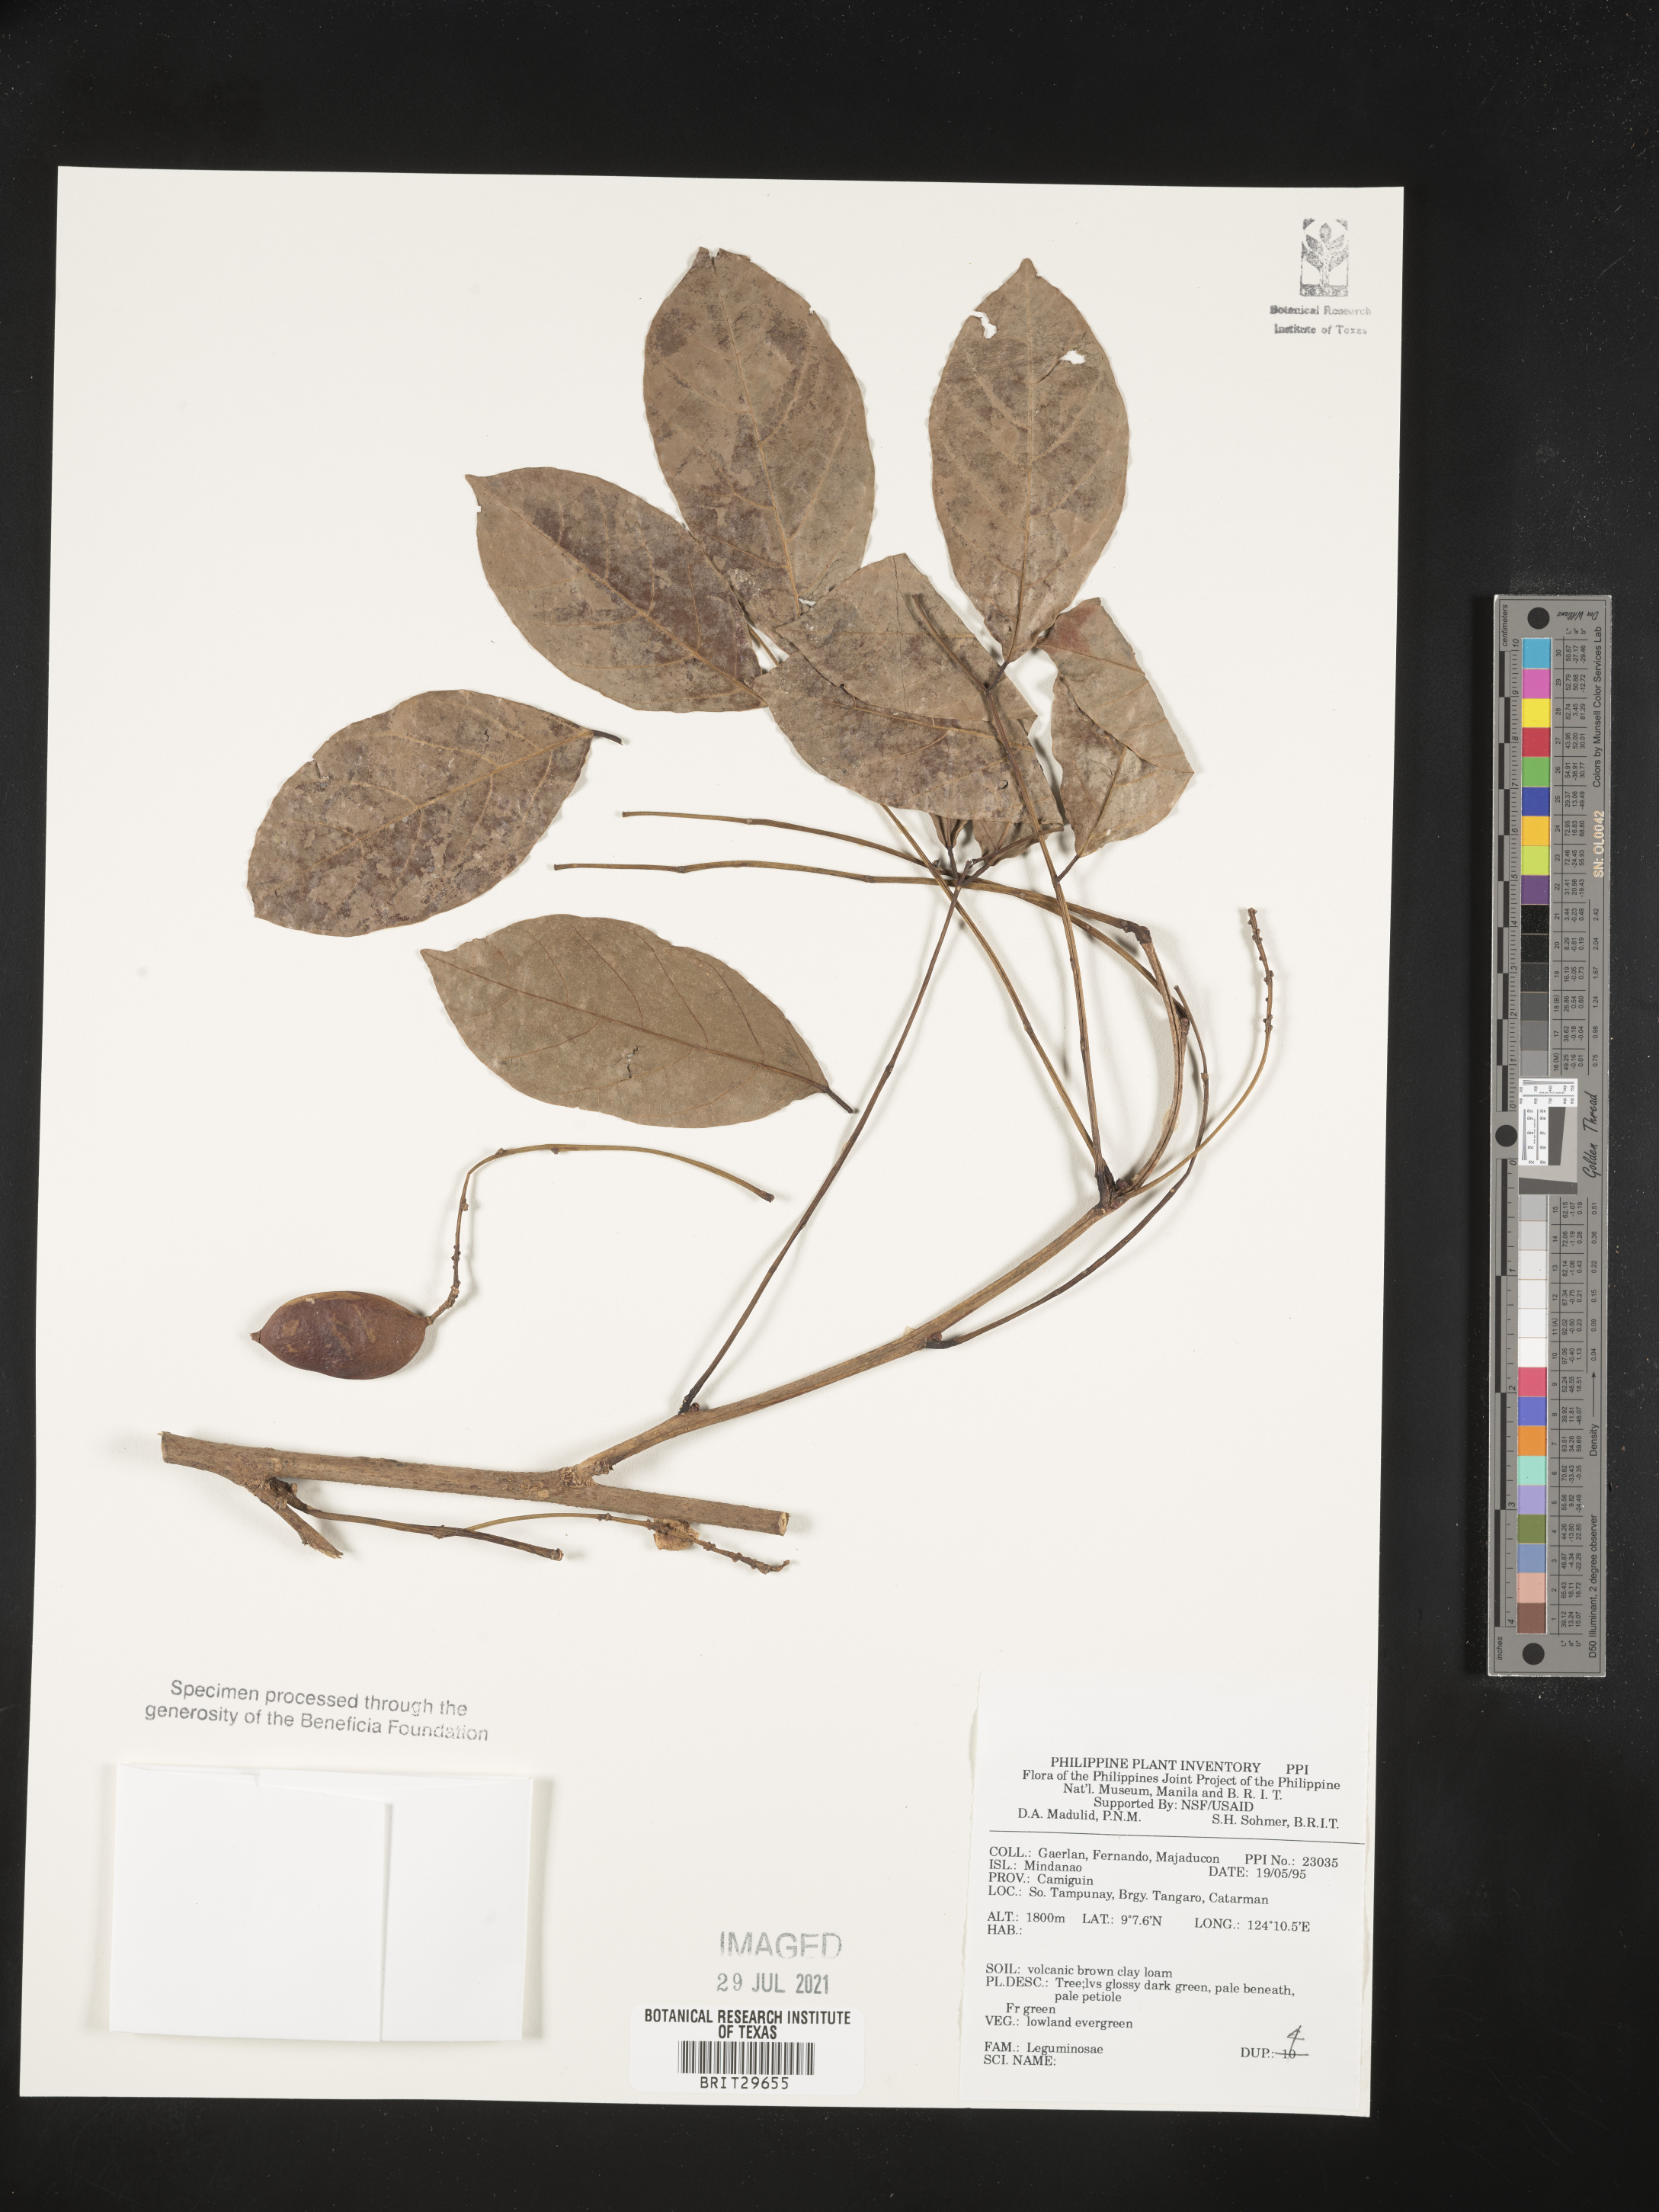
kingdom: Plantae
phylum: Tracheophyta
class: Magnoliopsida
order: Fabales
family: Fabaceae
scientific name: Fabaceae
